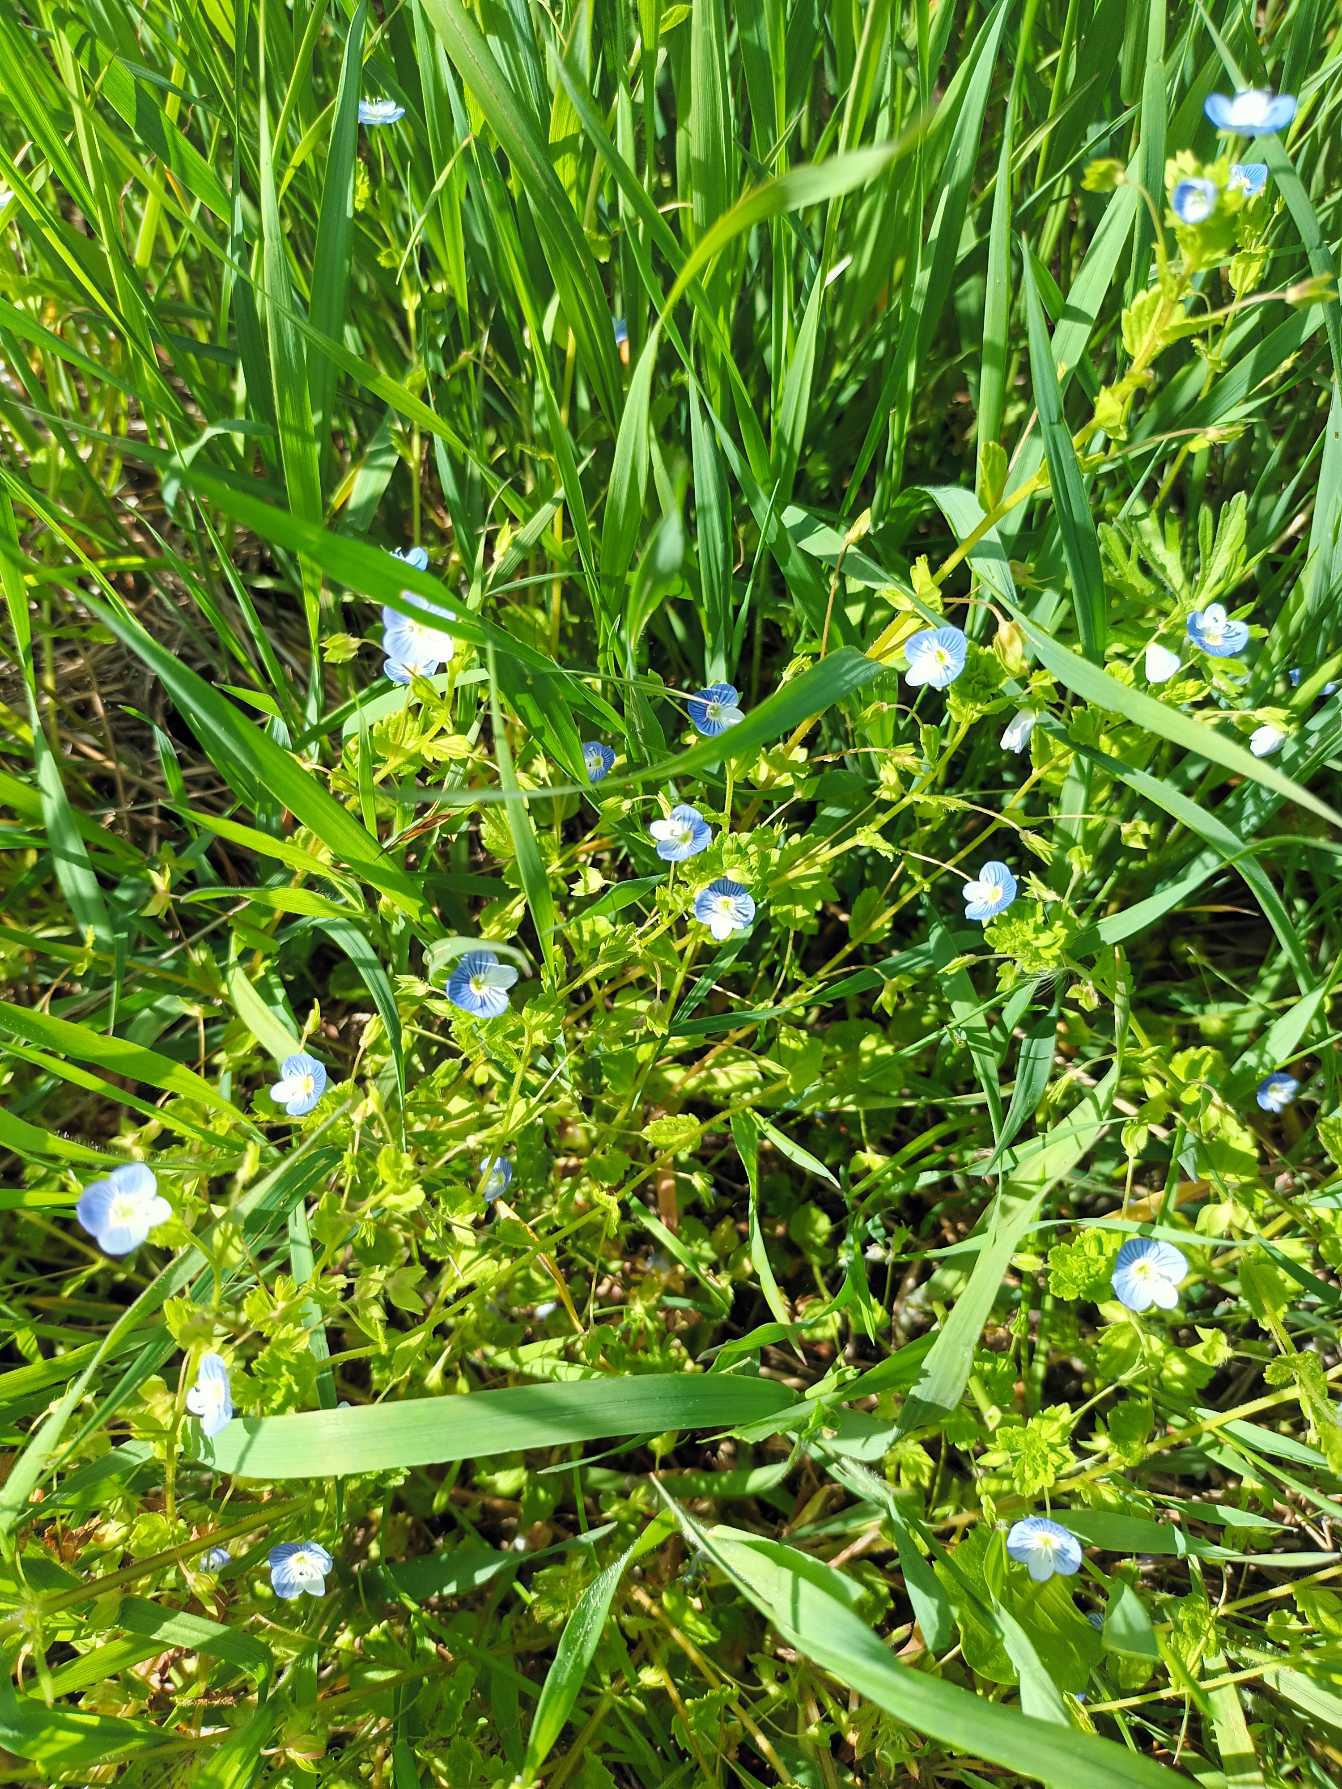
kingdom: Plantae
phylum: Tracheophyta
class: Magnoliopsida
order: Lamiales
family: Plantaginaceae
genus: Veronica
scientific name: Veronica persica
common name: Storkronet ærenpris
